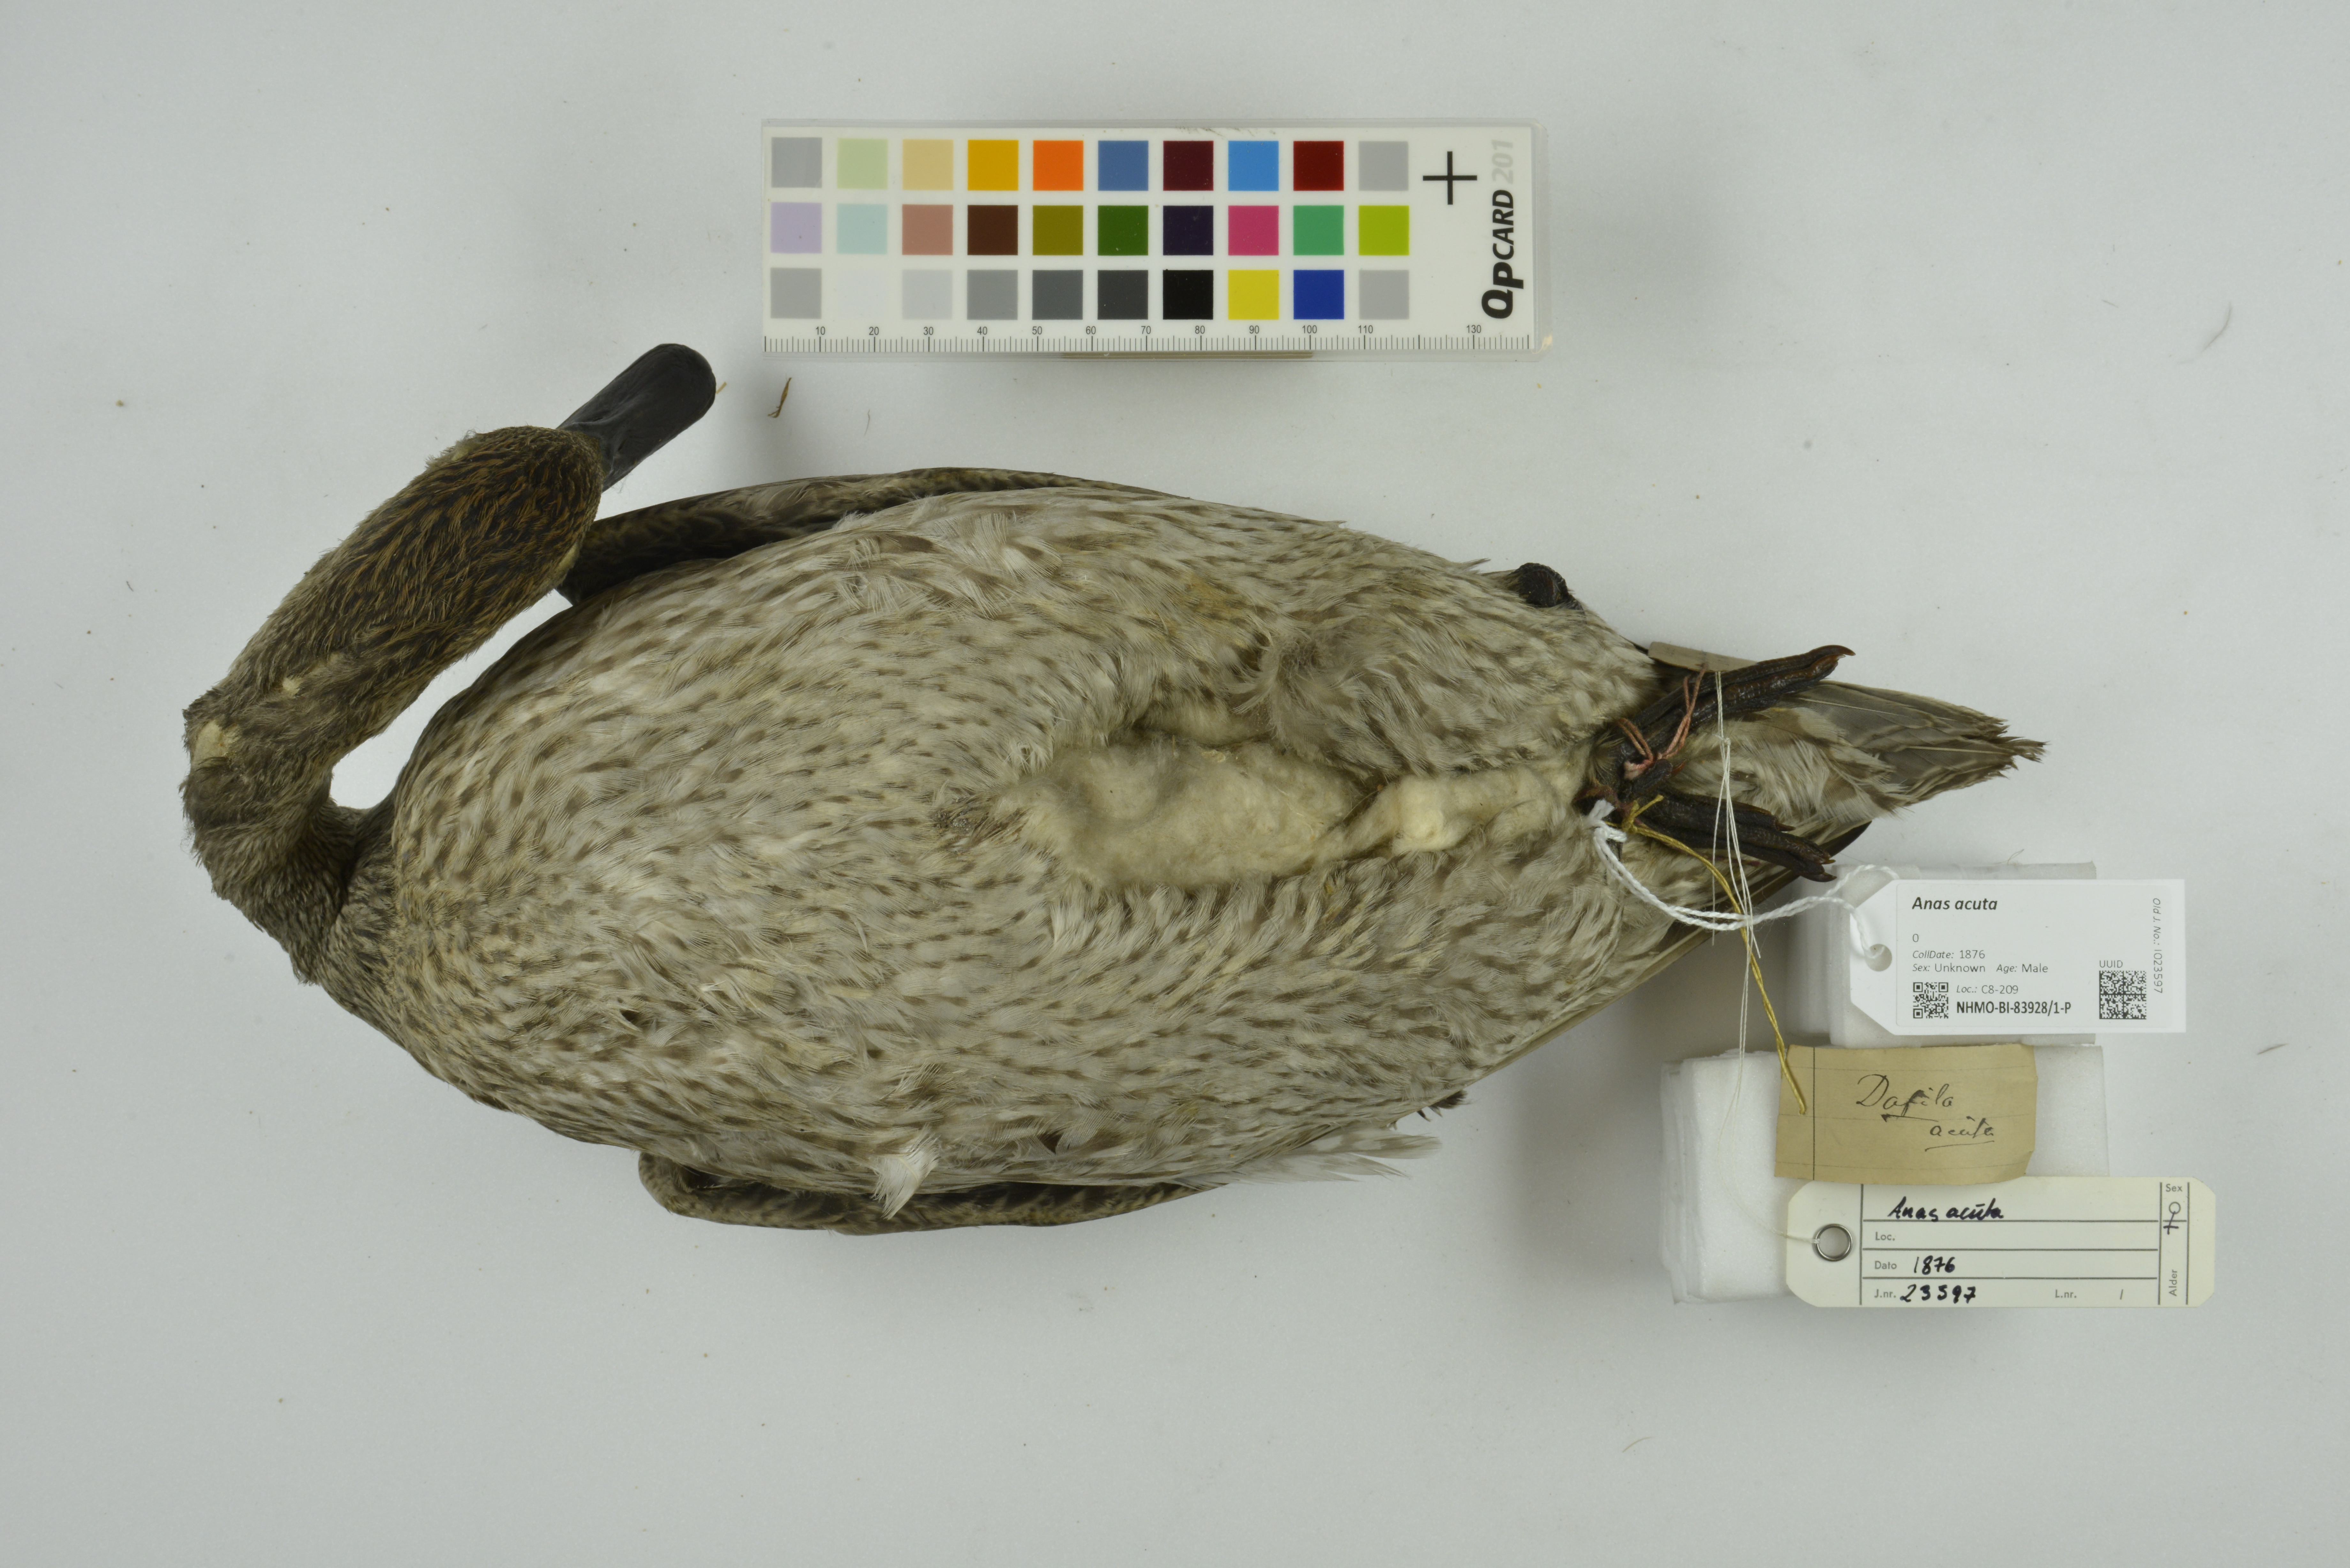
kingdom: Animalia
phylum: Chordata
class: Aves
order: Anseriformes
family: Anatidae
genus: Anas
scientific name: Anas acuta
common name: Northern pintail
